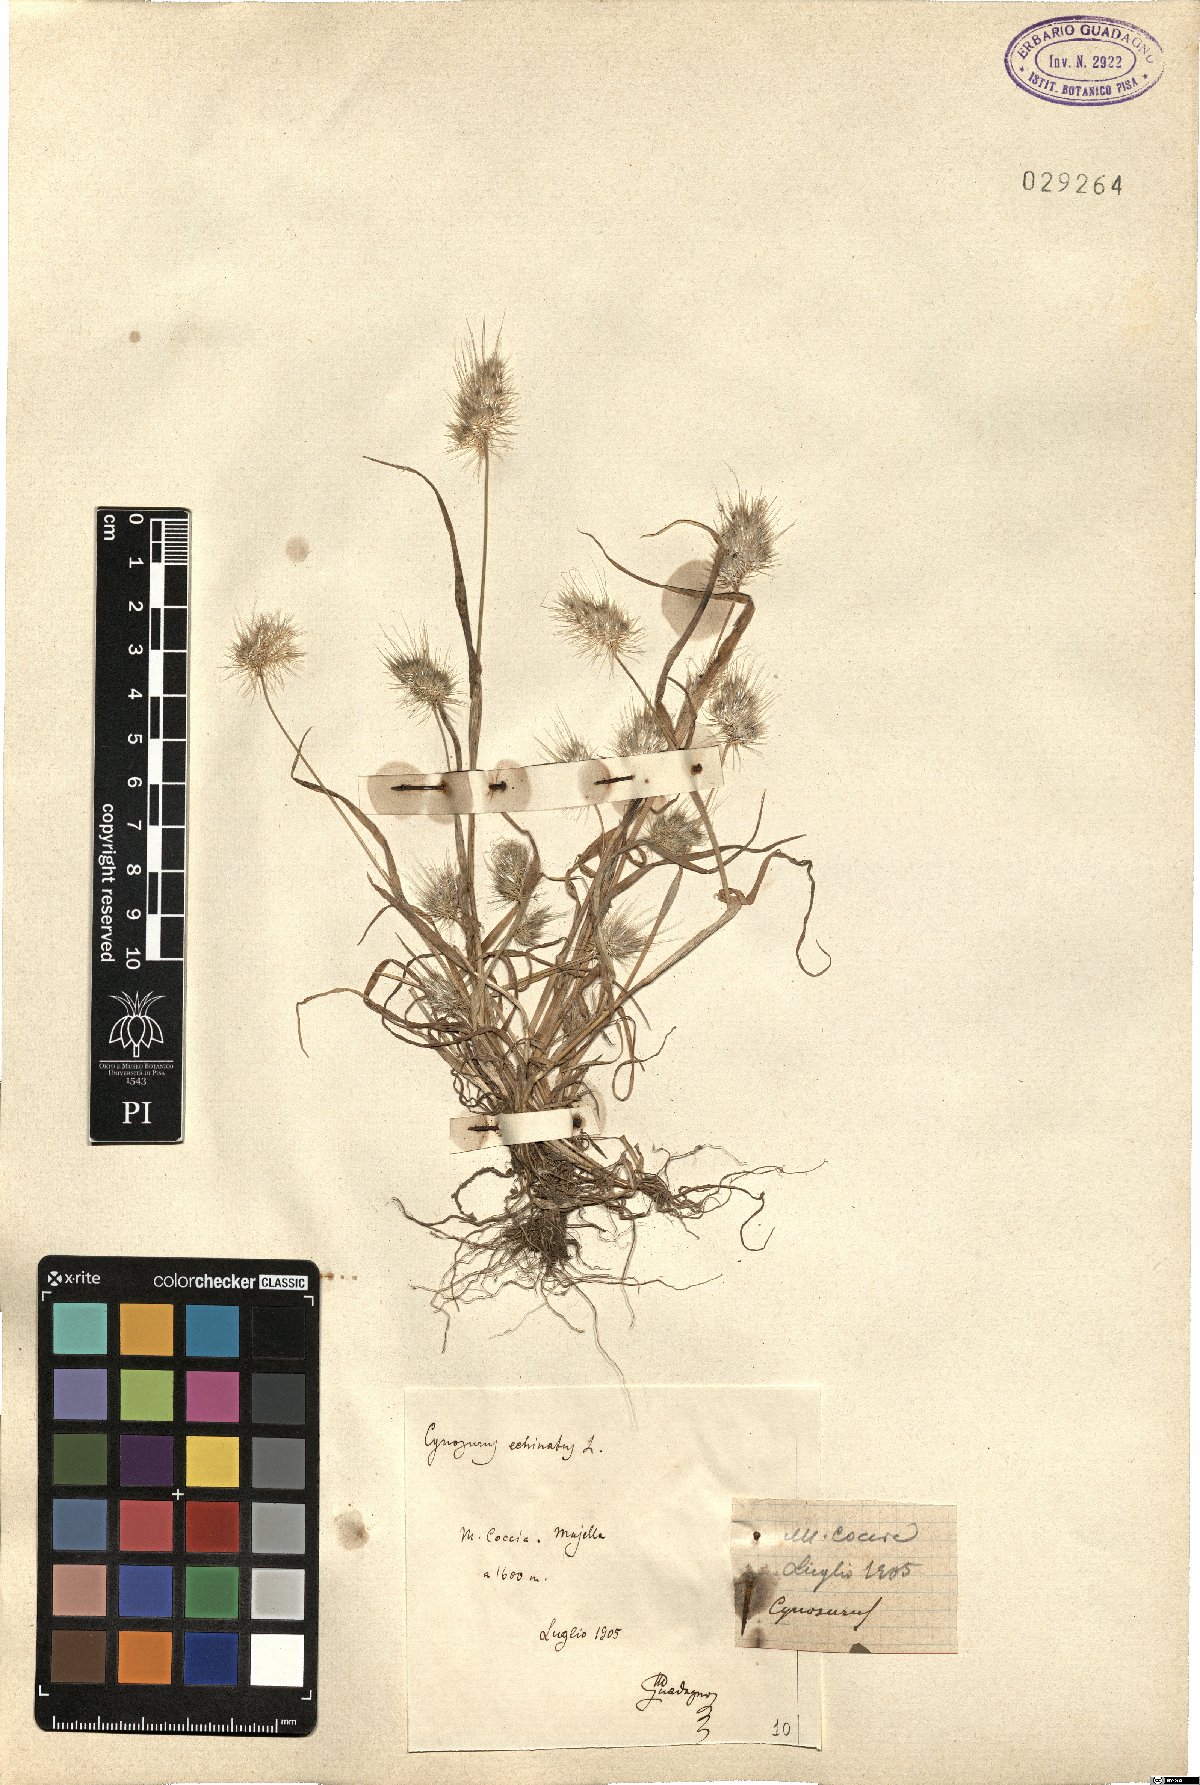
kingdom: Plantae
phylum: Tracheophyta
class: Liliopsida
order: Poales
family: Poaceae
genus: Cynosurus
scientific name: Cynosurus echinatus
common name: Rough dog's-tail
